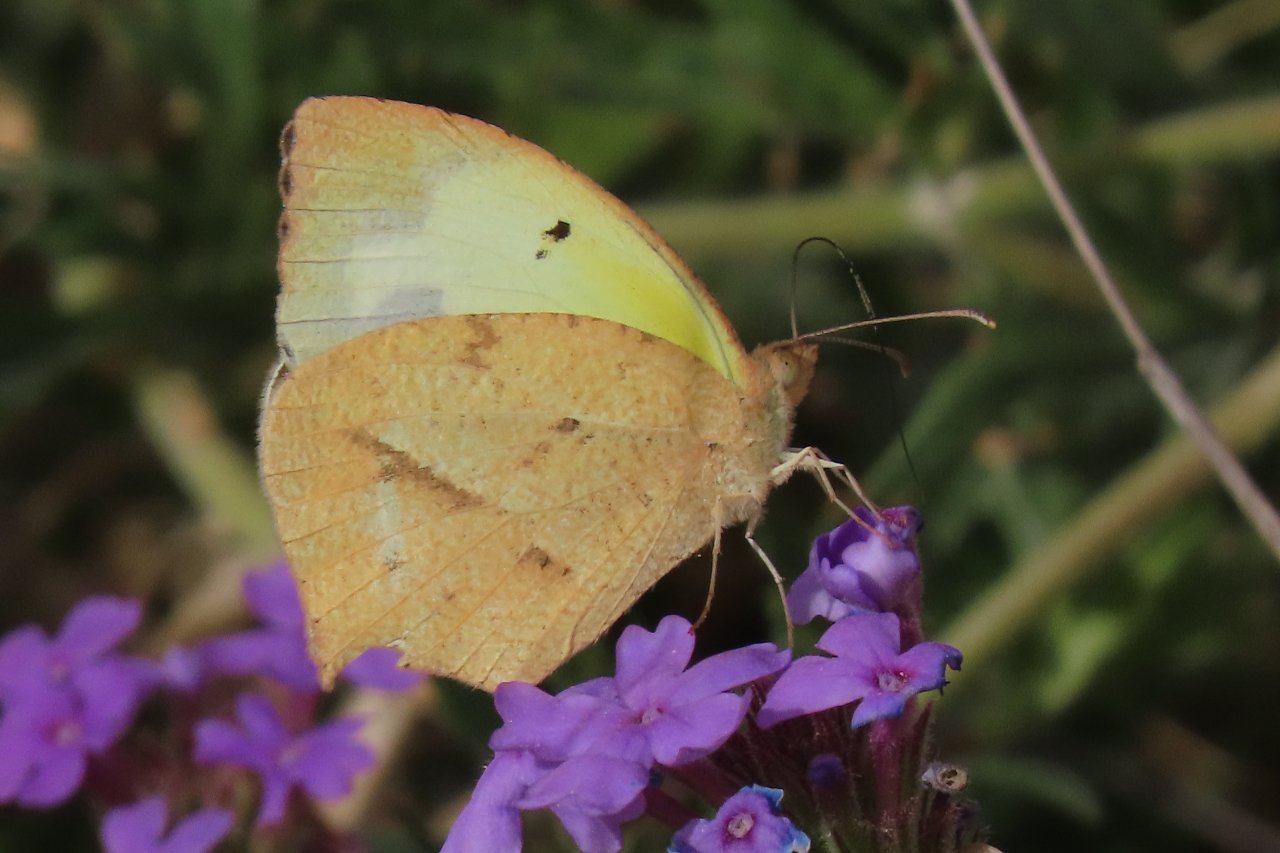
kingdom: Animalia
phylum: Arthropoda
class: Insecta
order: Lepidoptera
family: Pieridae
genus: Eurema
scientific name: Eurema mexicana
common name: Mexican Yellow
